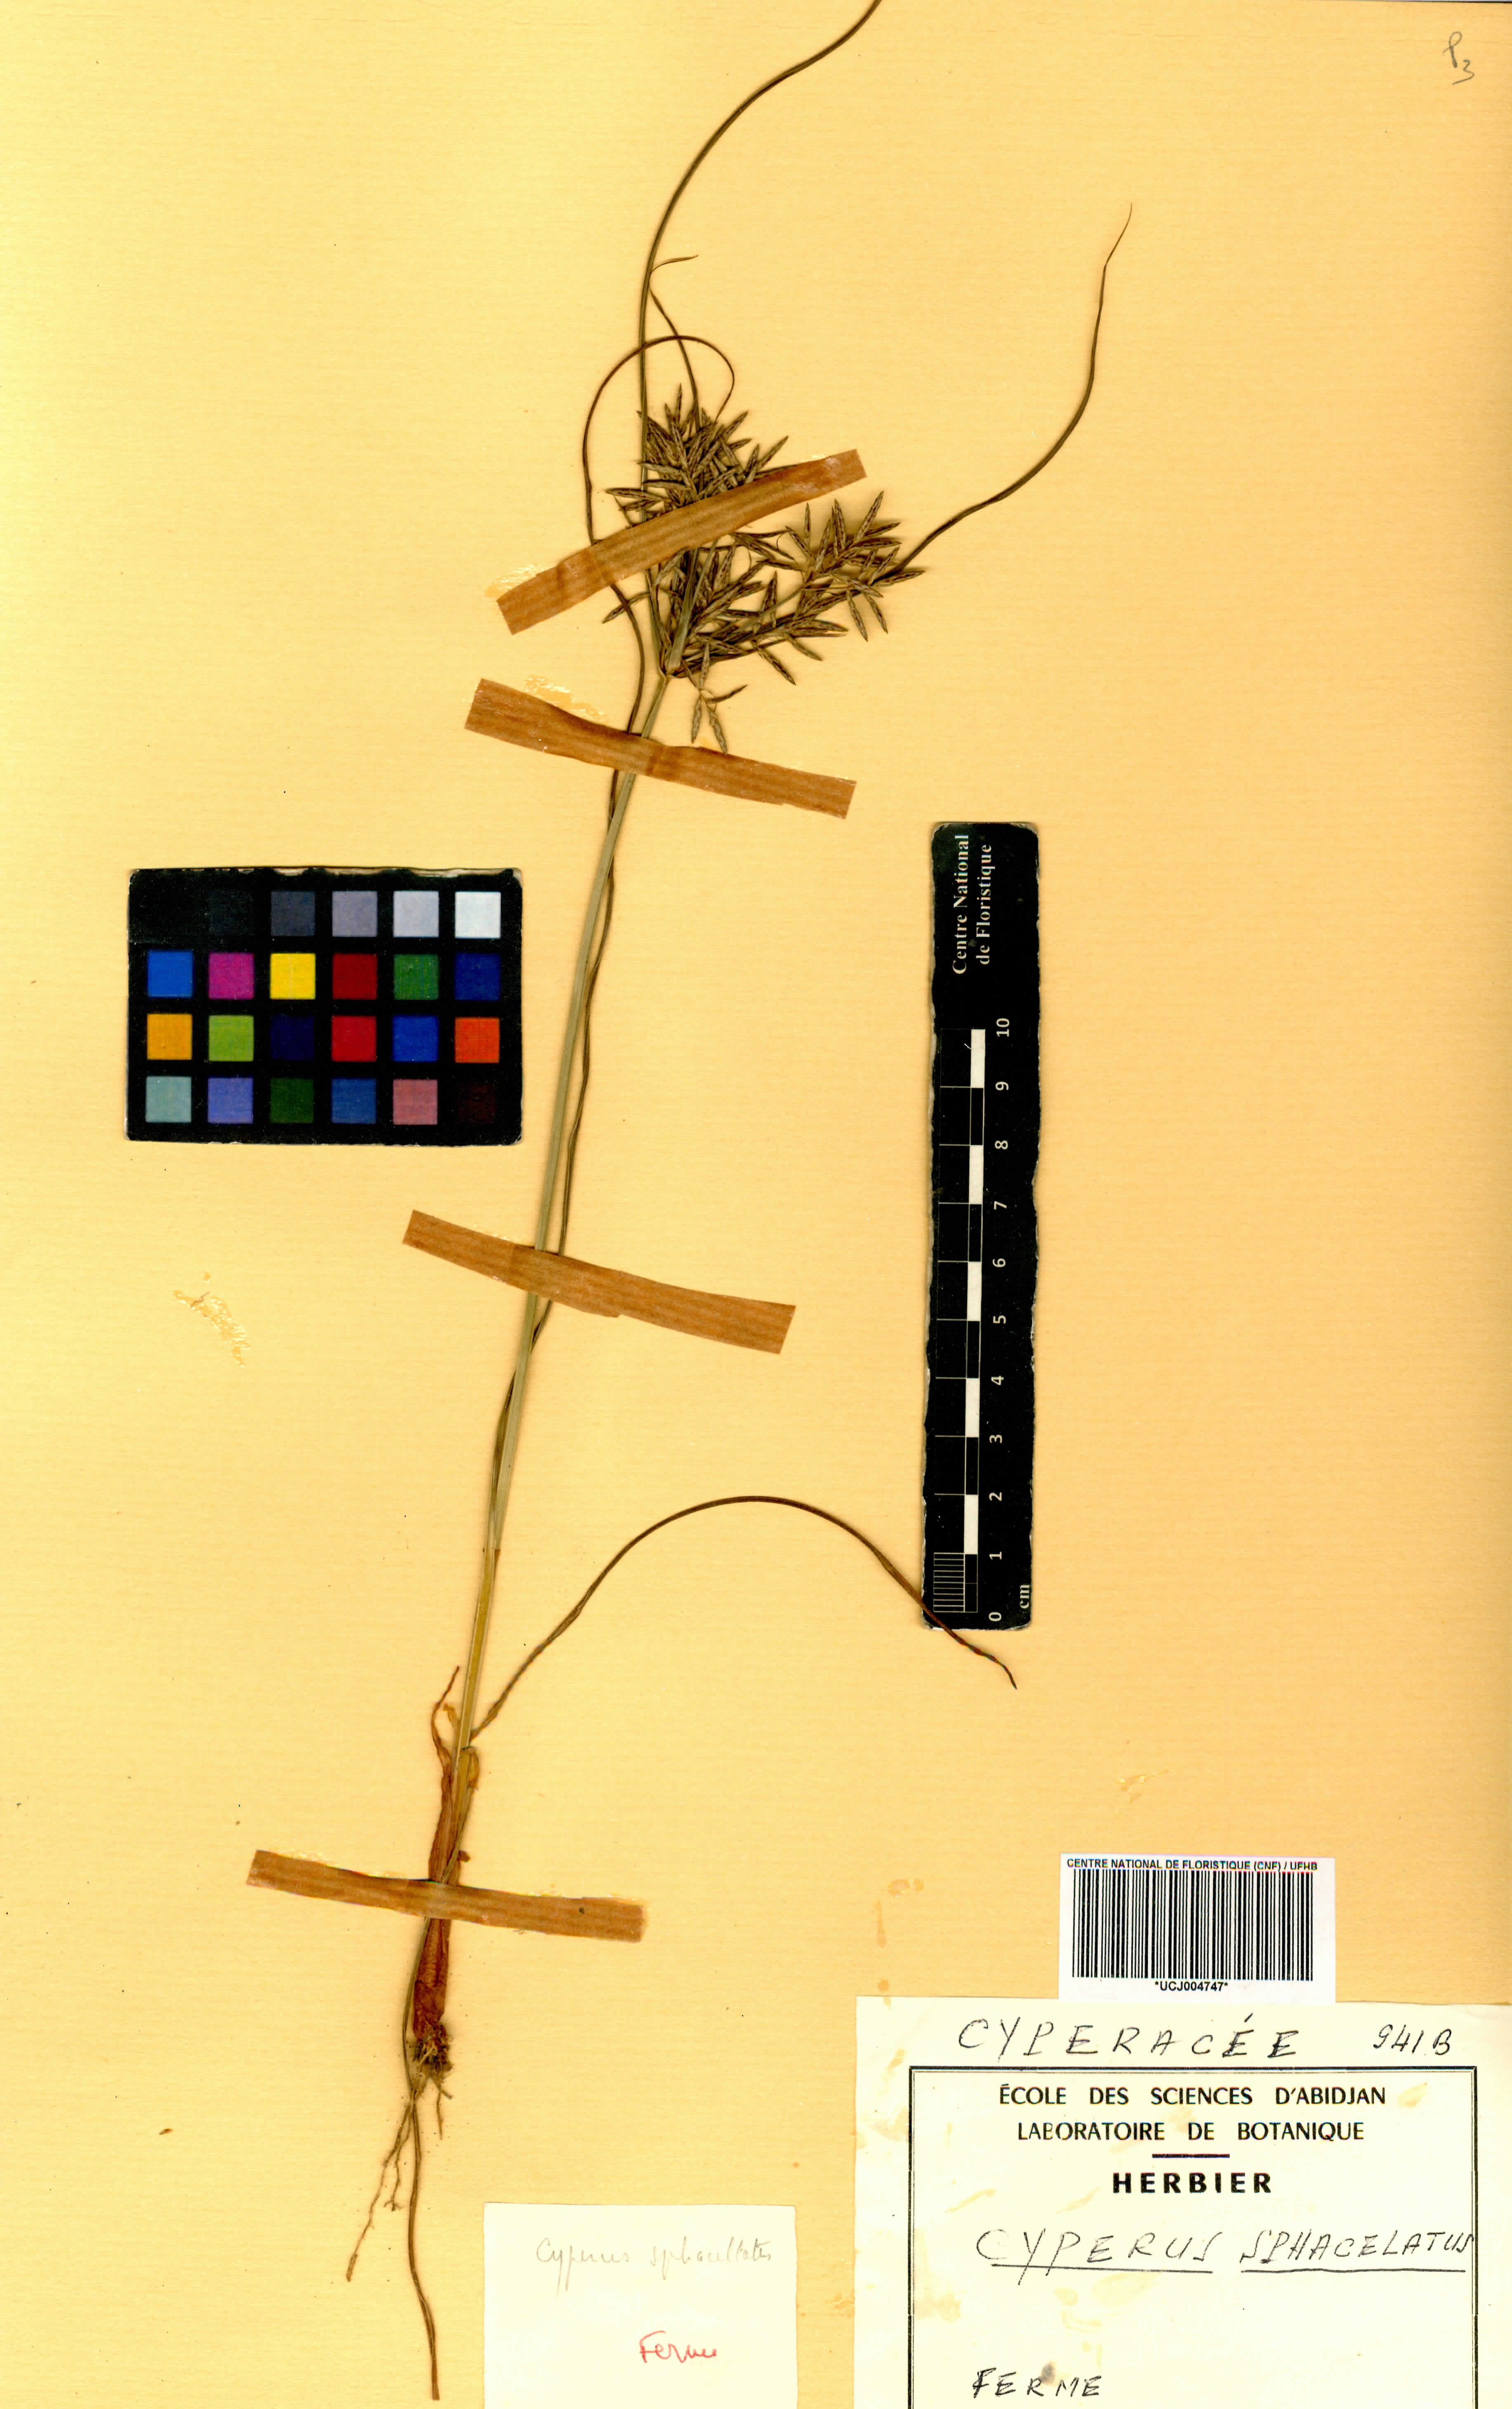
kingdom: Plantae
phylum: Tracheophyta
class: Liliopsida
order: Poales
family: Cyperaceae
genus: Cyperus
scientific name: Cyperus sphacelatus
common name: Roadside flatsedge
